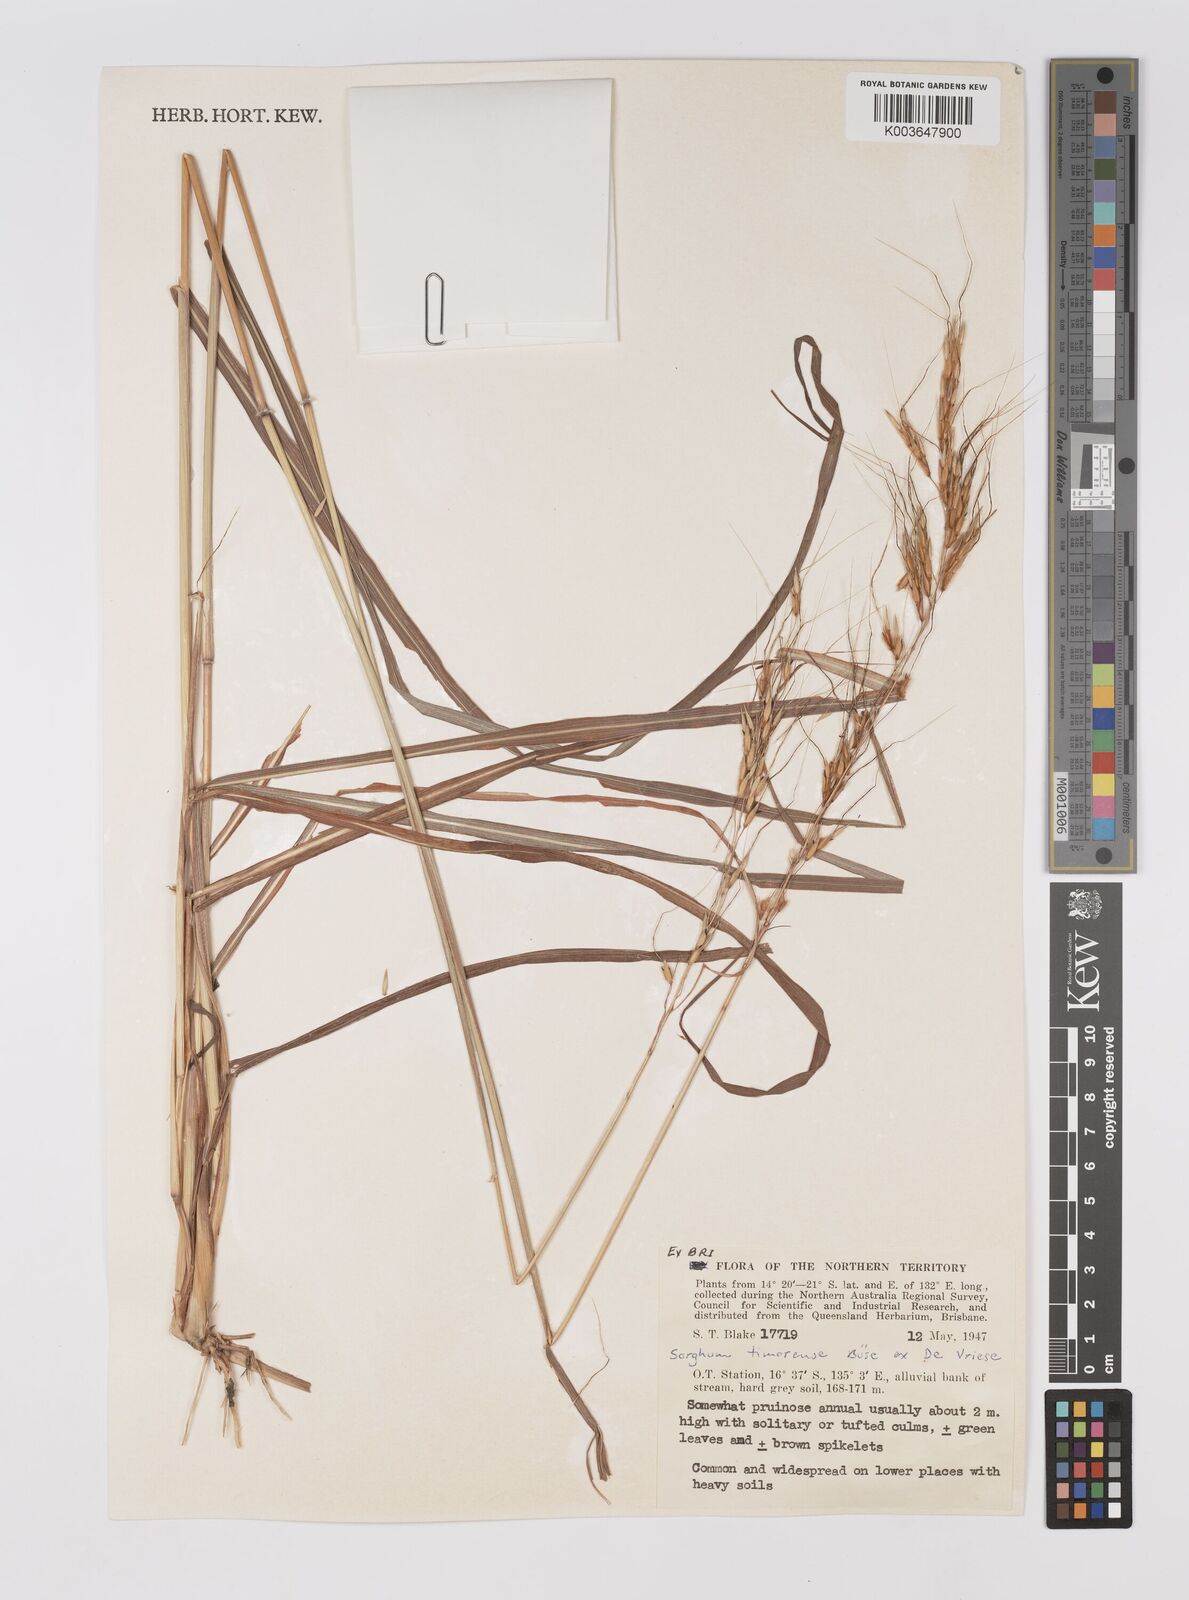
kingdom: Plantae
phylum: Tracheophyta
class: Liliopsida
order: Poales
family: Poaceae
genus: Sarga
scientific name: Sarga timorensis
